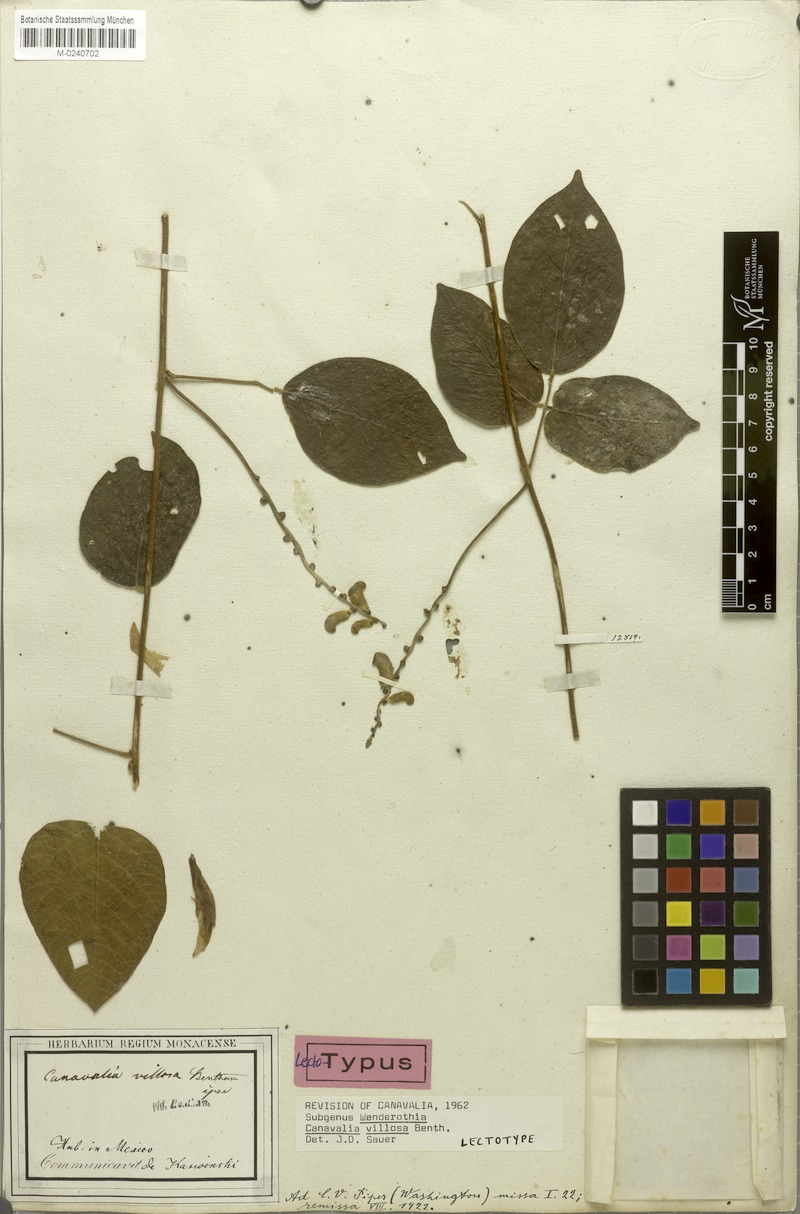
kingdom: Plantae
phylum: Tracheophyta
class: Magnoliopsida
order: Fabales
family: Fabaceae
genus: Canavalia
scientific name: Canavalia villosa
